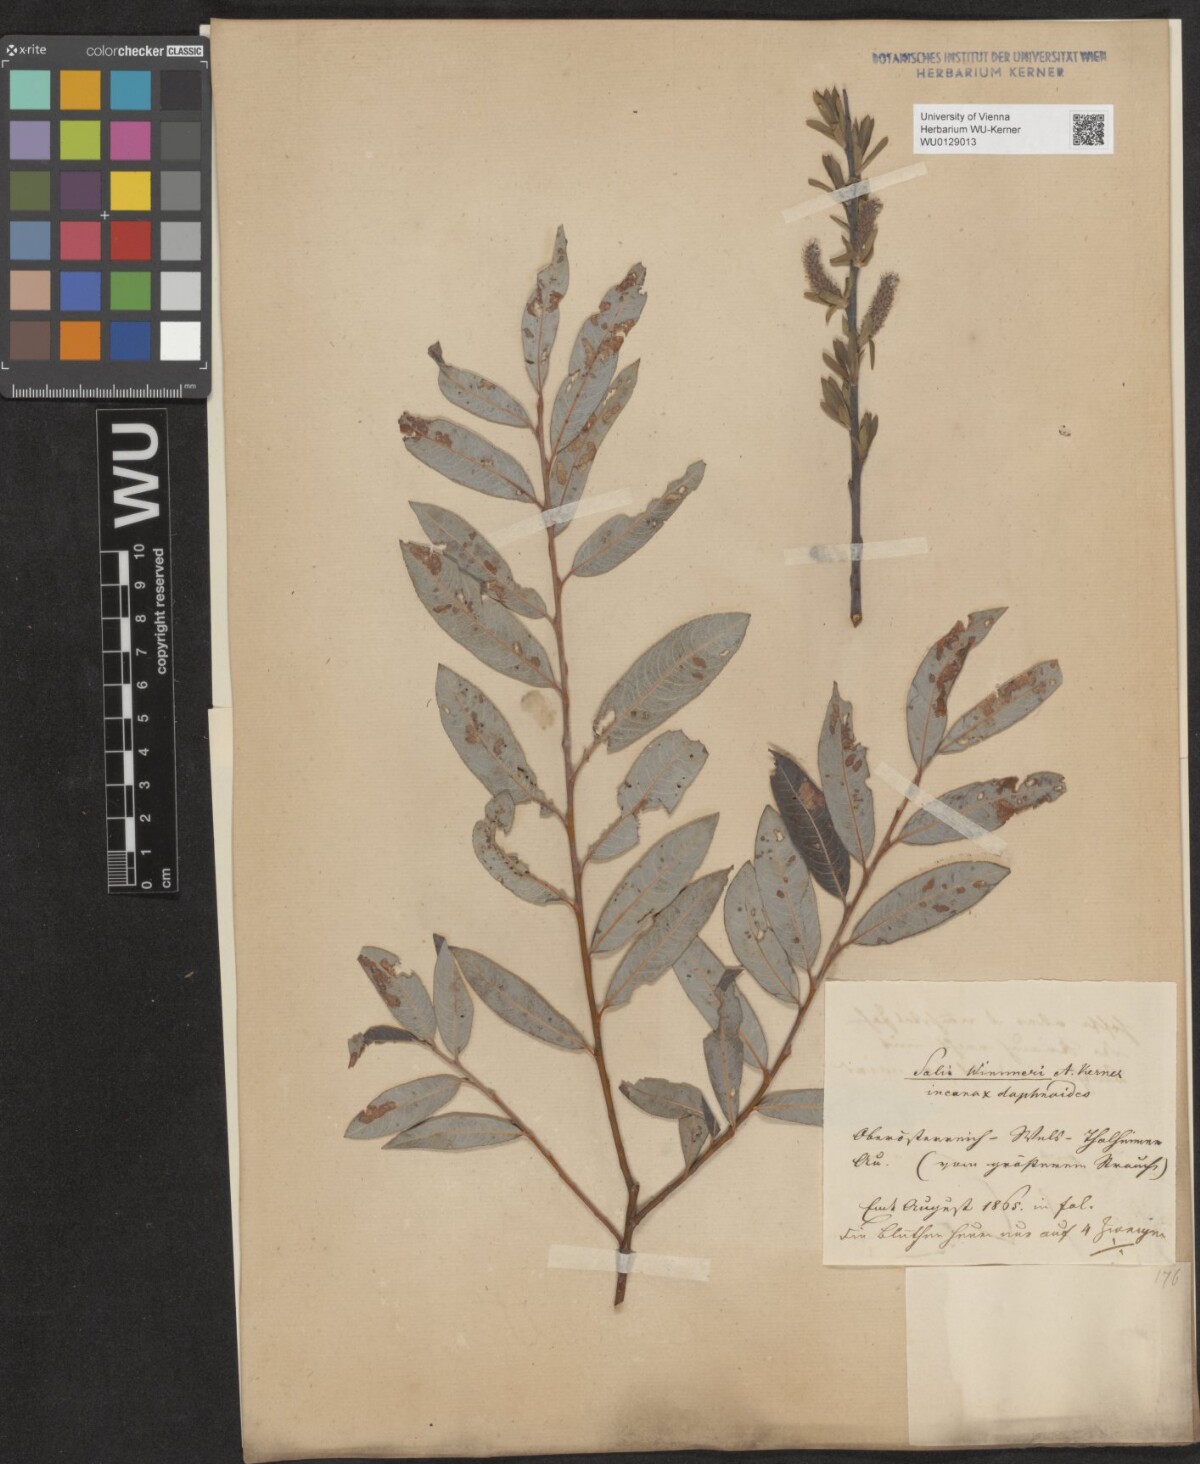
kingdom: Plantae
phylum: Tracheophyta
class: Magnoliopsida
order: Malpighiales
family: Salicaceae
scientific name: Salicaceae
